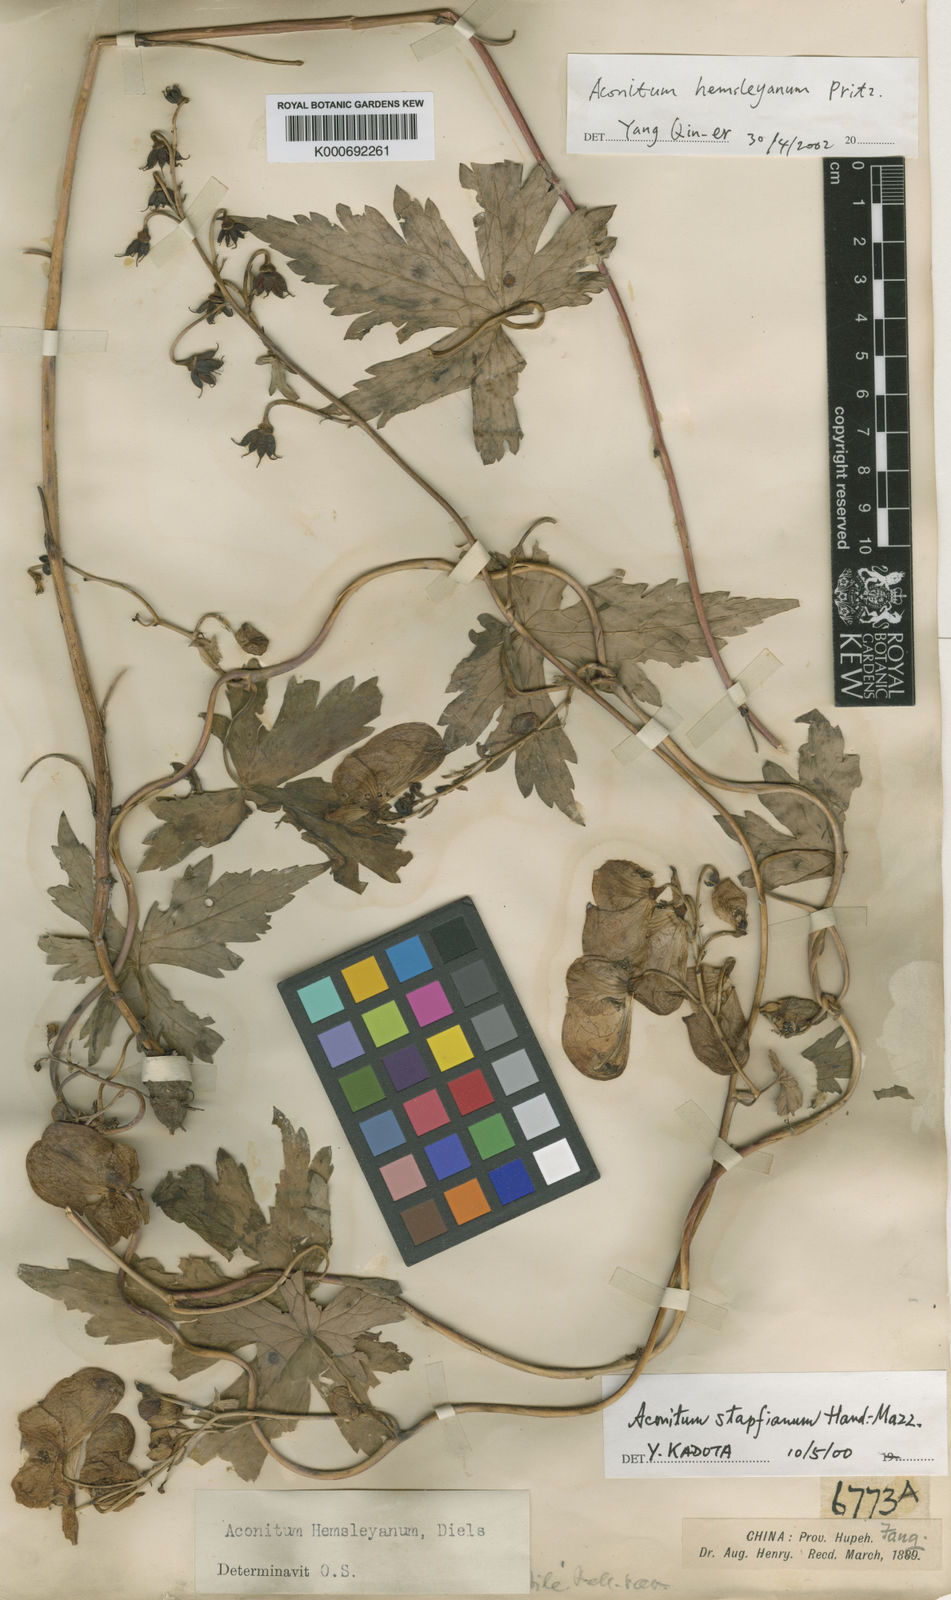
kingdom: Plantae
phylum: Tracheophyta
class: Magnoliopsida
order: Ranunculales
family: Ranunculaceae
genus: Aconitum
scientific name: Aconitum hemsleyanum
